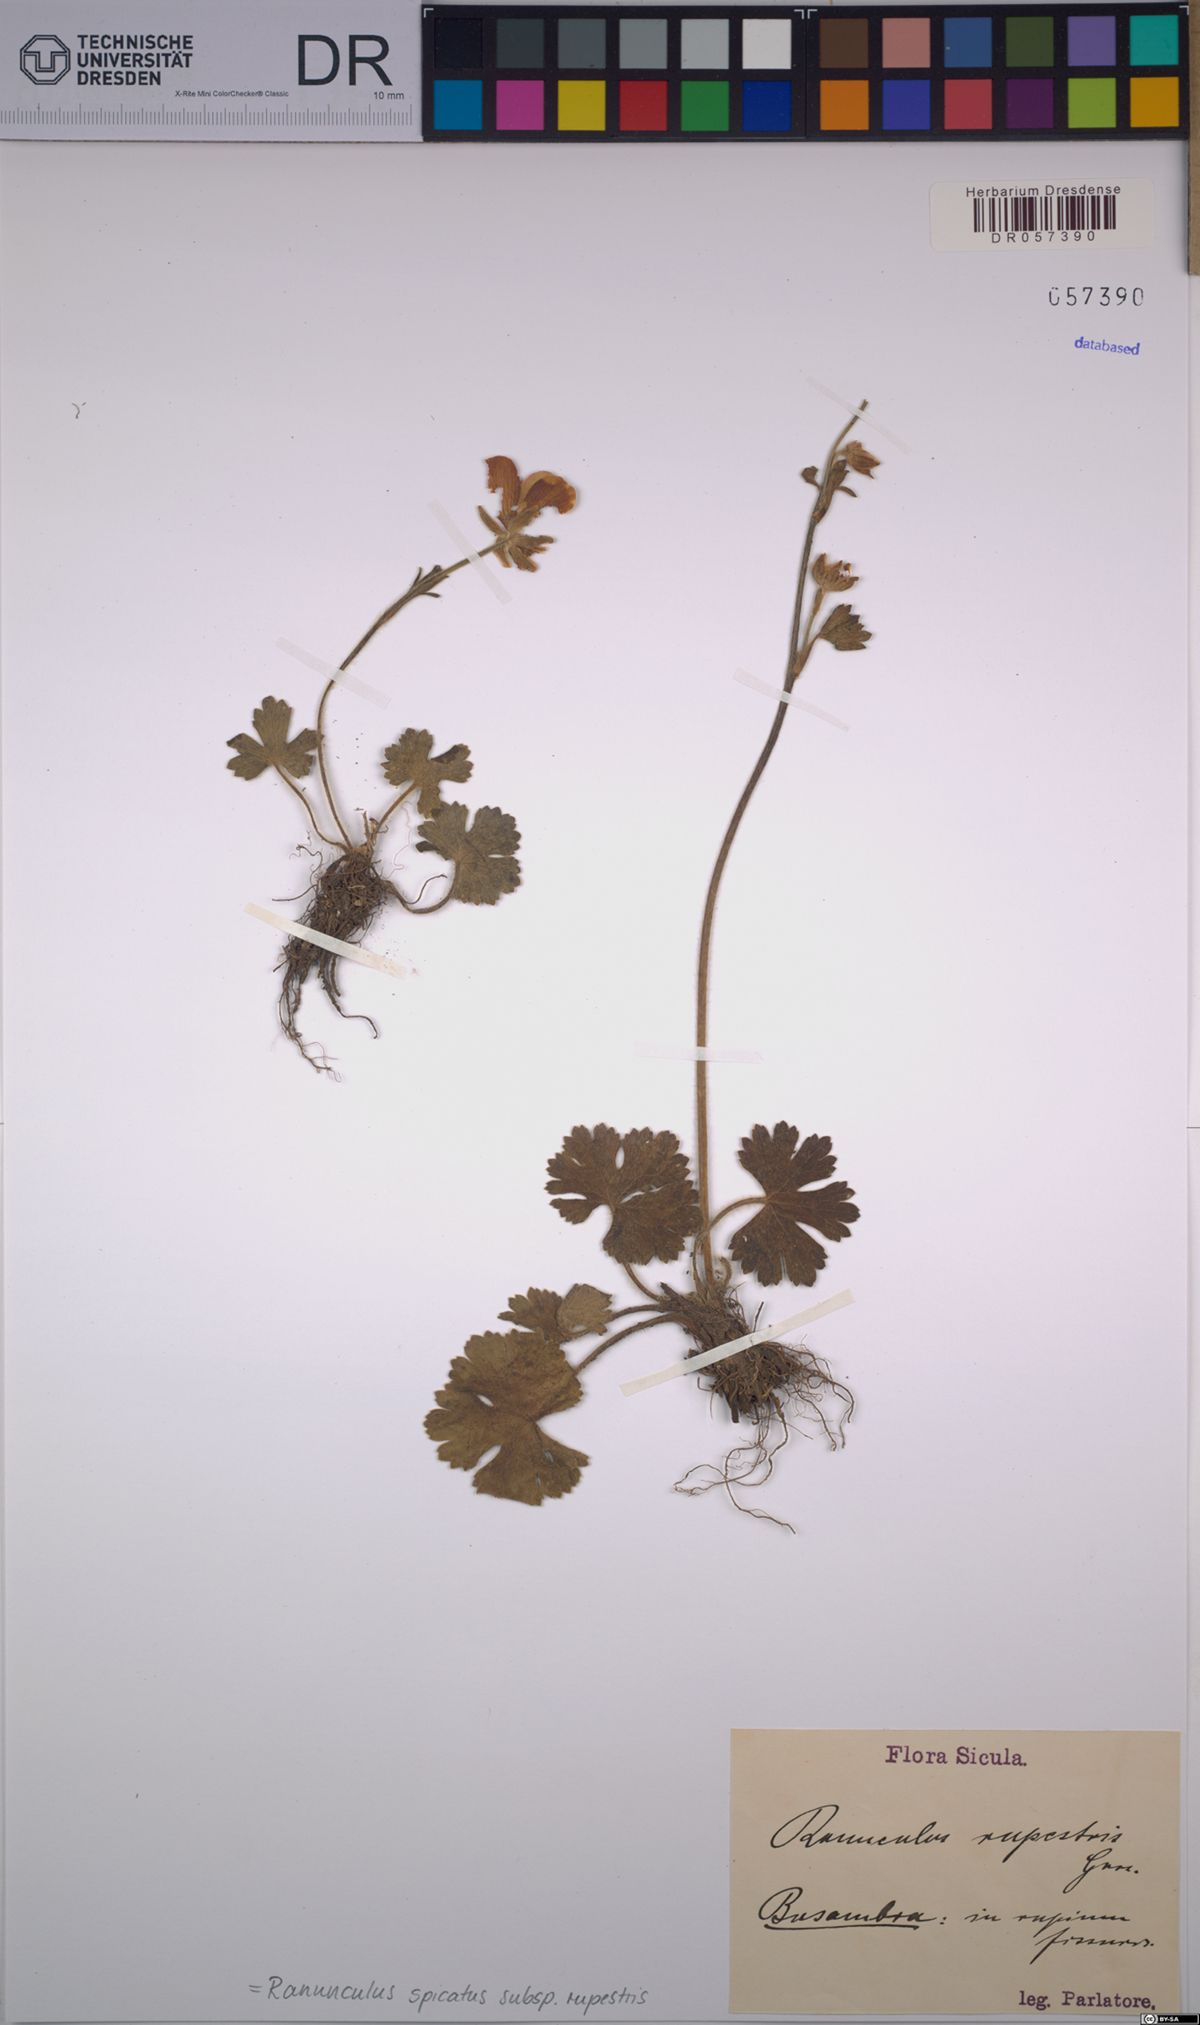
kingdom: Plantae
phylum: Tracheophyta
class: Magnoliopsida
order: Ranunculales
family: Ranunculaceae
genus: Ranunculus
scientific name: Ranunculus spicatus
